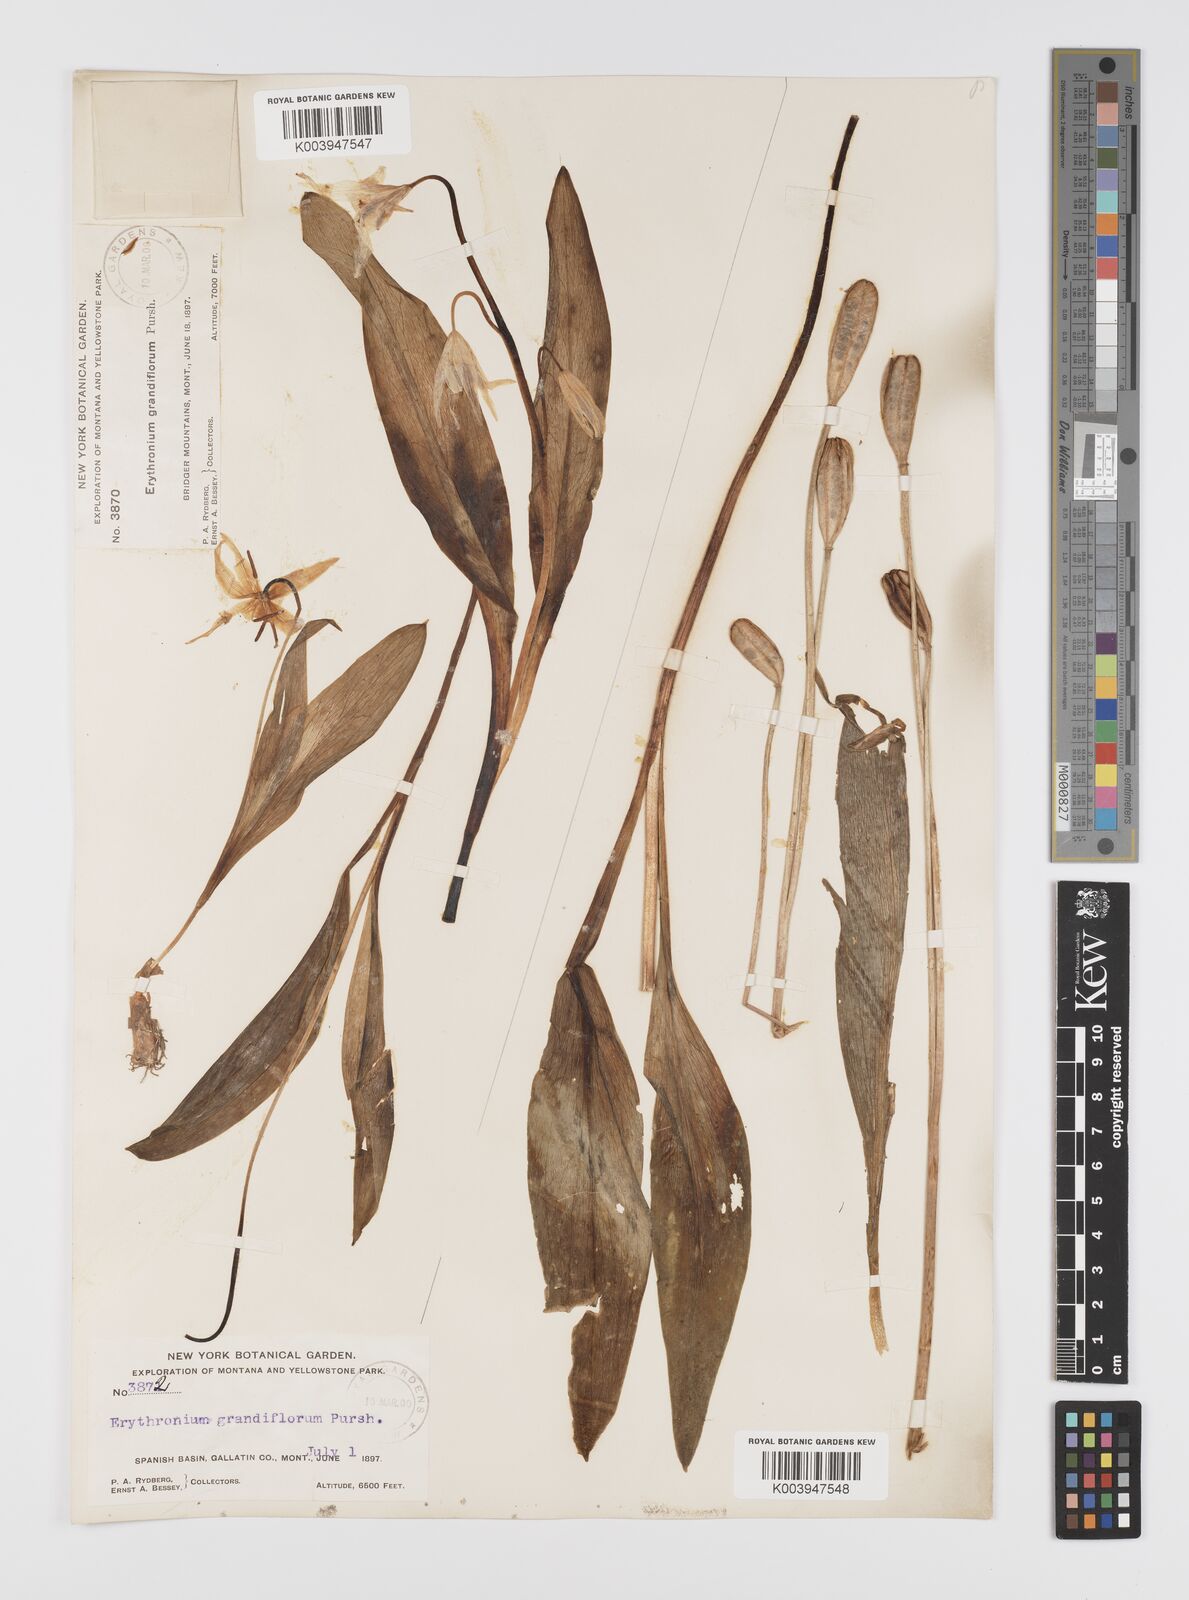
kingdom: Plantae
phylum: Tracheophyta
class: Liliopsida
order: Liliales
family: Liliaceae
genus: Erythronium
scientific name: Erythronium grandiflorum
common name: Avalanche-lily
